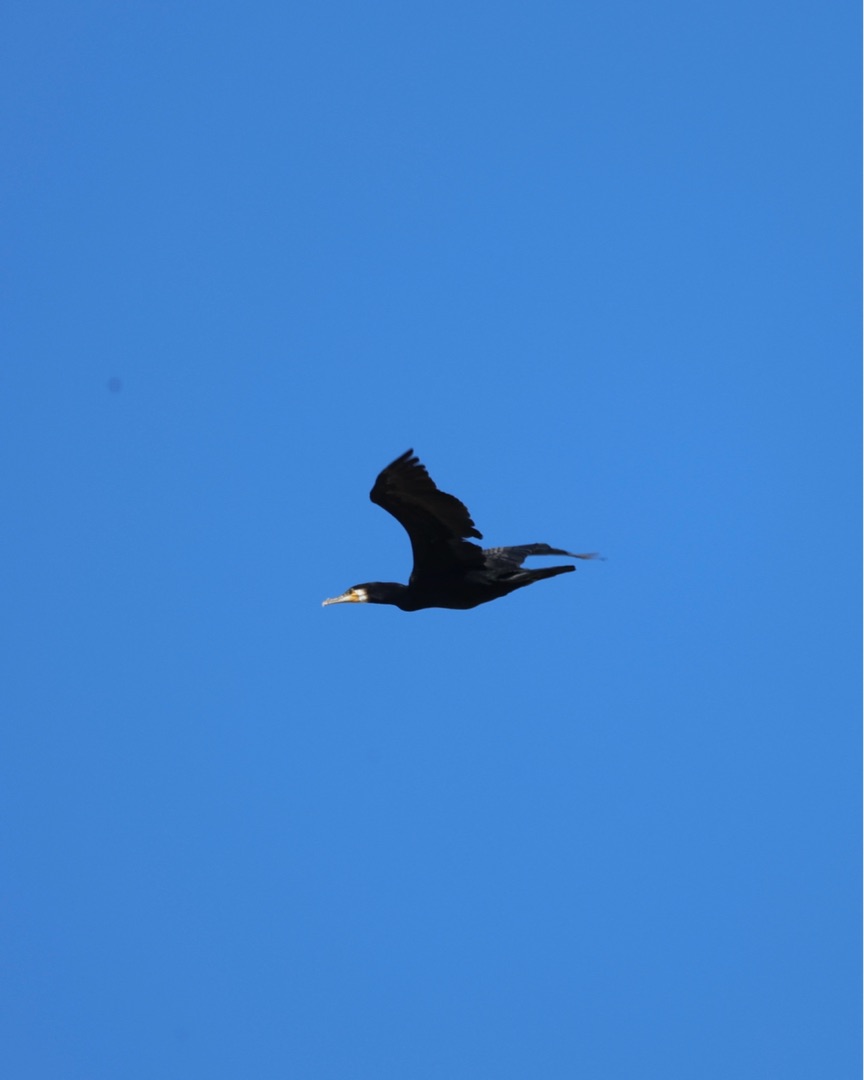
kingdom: Animalia
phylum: Chordata
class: Aves
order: Suliformes
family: Phalacrocoracidae
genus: Phalacrocorax
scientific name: Phalacrocorax carbo
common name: Skarv
